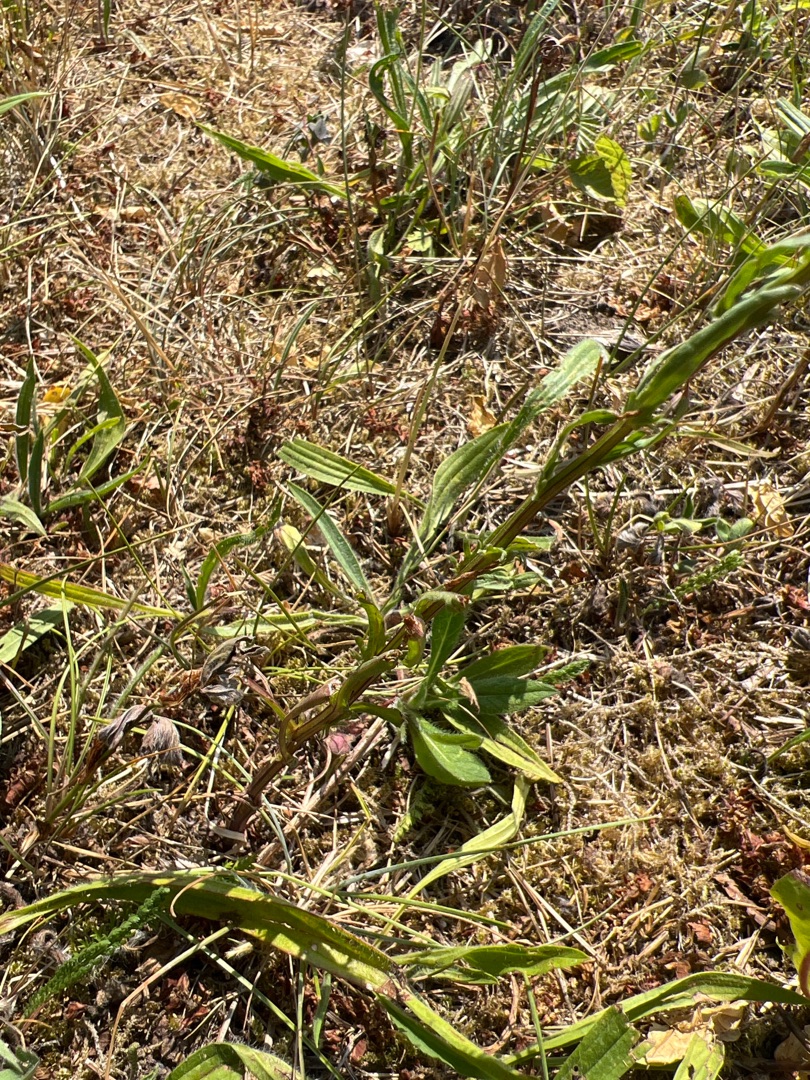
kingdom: Plantae
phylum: Tracheophyta
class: Magnoliopsida
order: Asterales
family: Asteraceae
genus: Leucanthemum
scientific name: Leucanthemum vulgare
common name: Hvid okseøje
